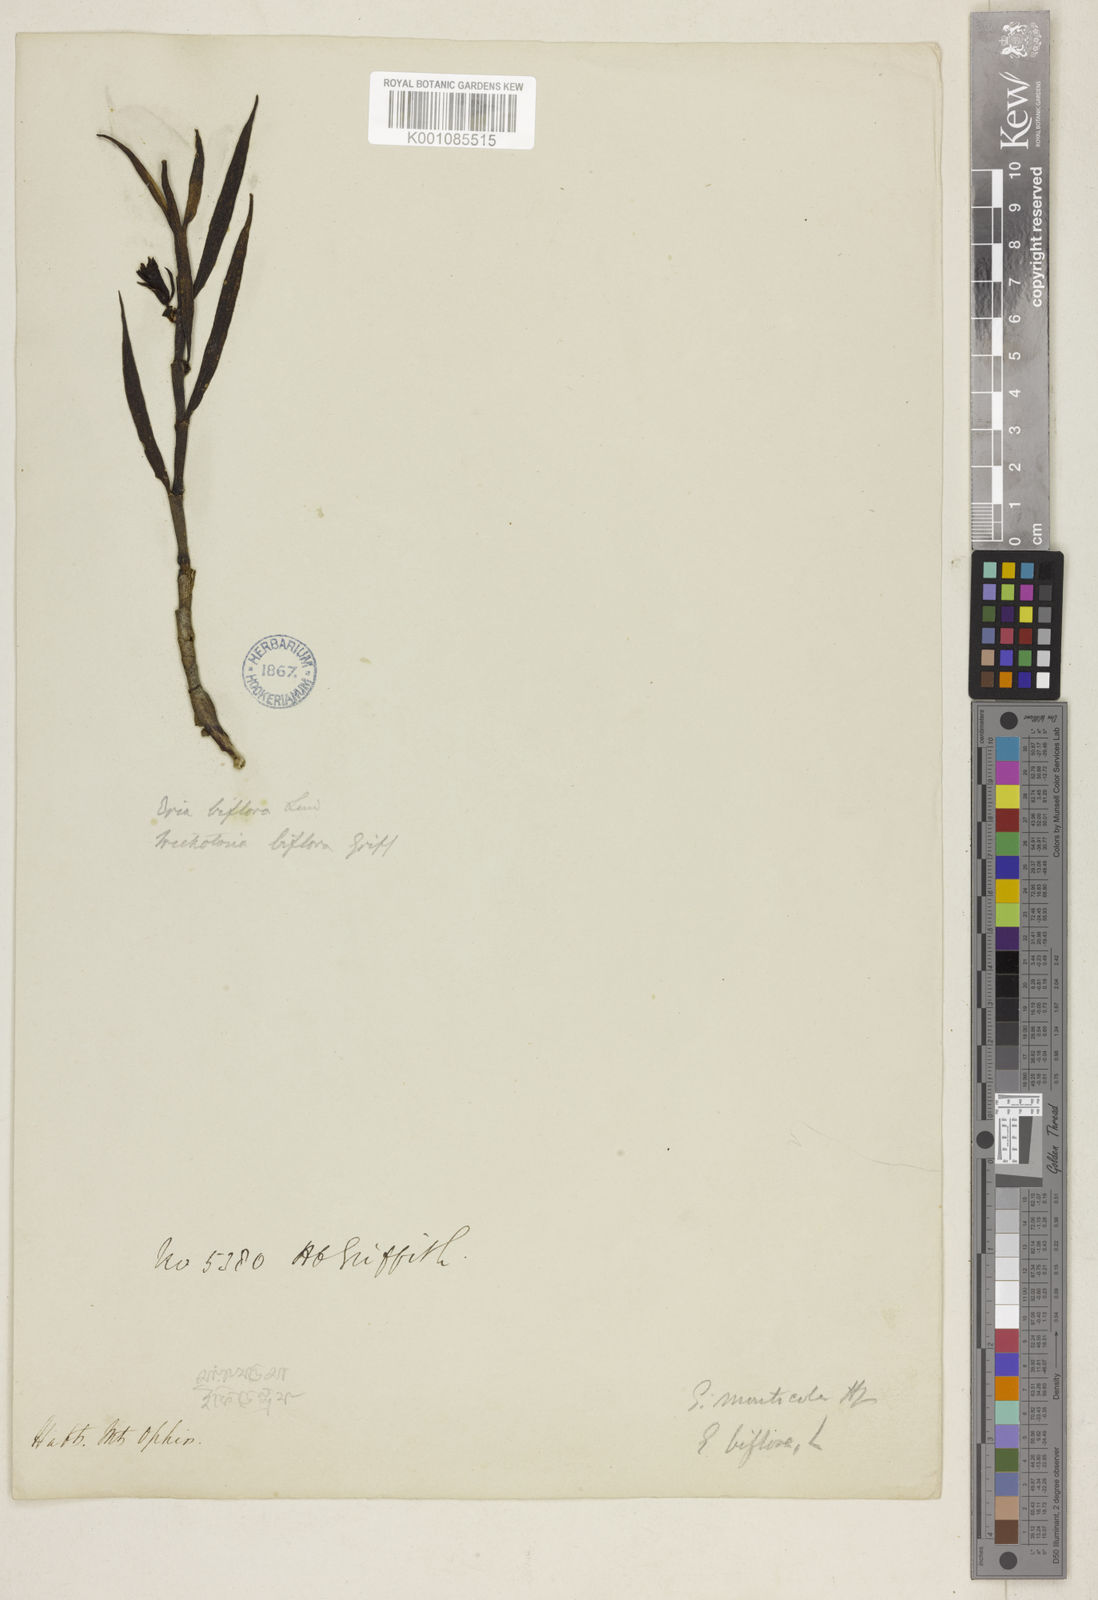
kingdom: Plantae
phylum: Tracheophyta
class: Liliopsida
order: Asparagales
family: Orchidaceae
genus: Trichotosia
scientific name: Trichotosia pauciflora
